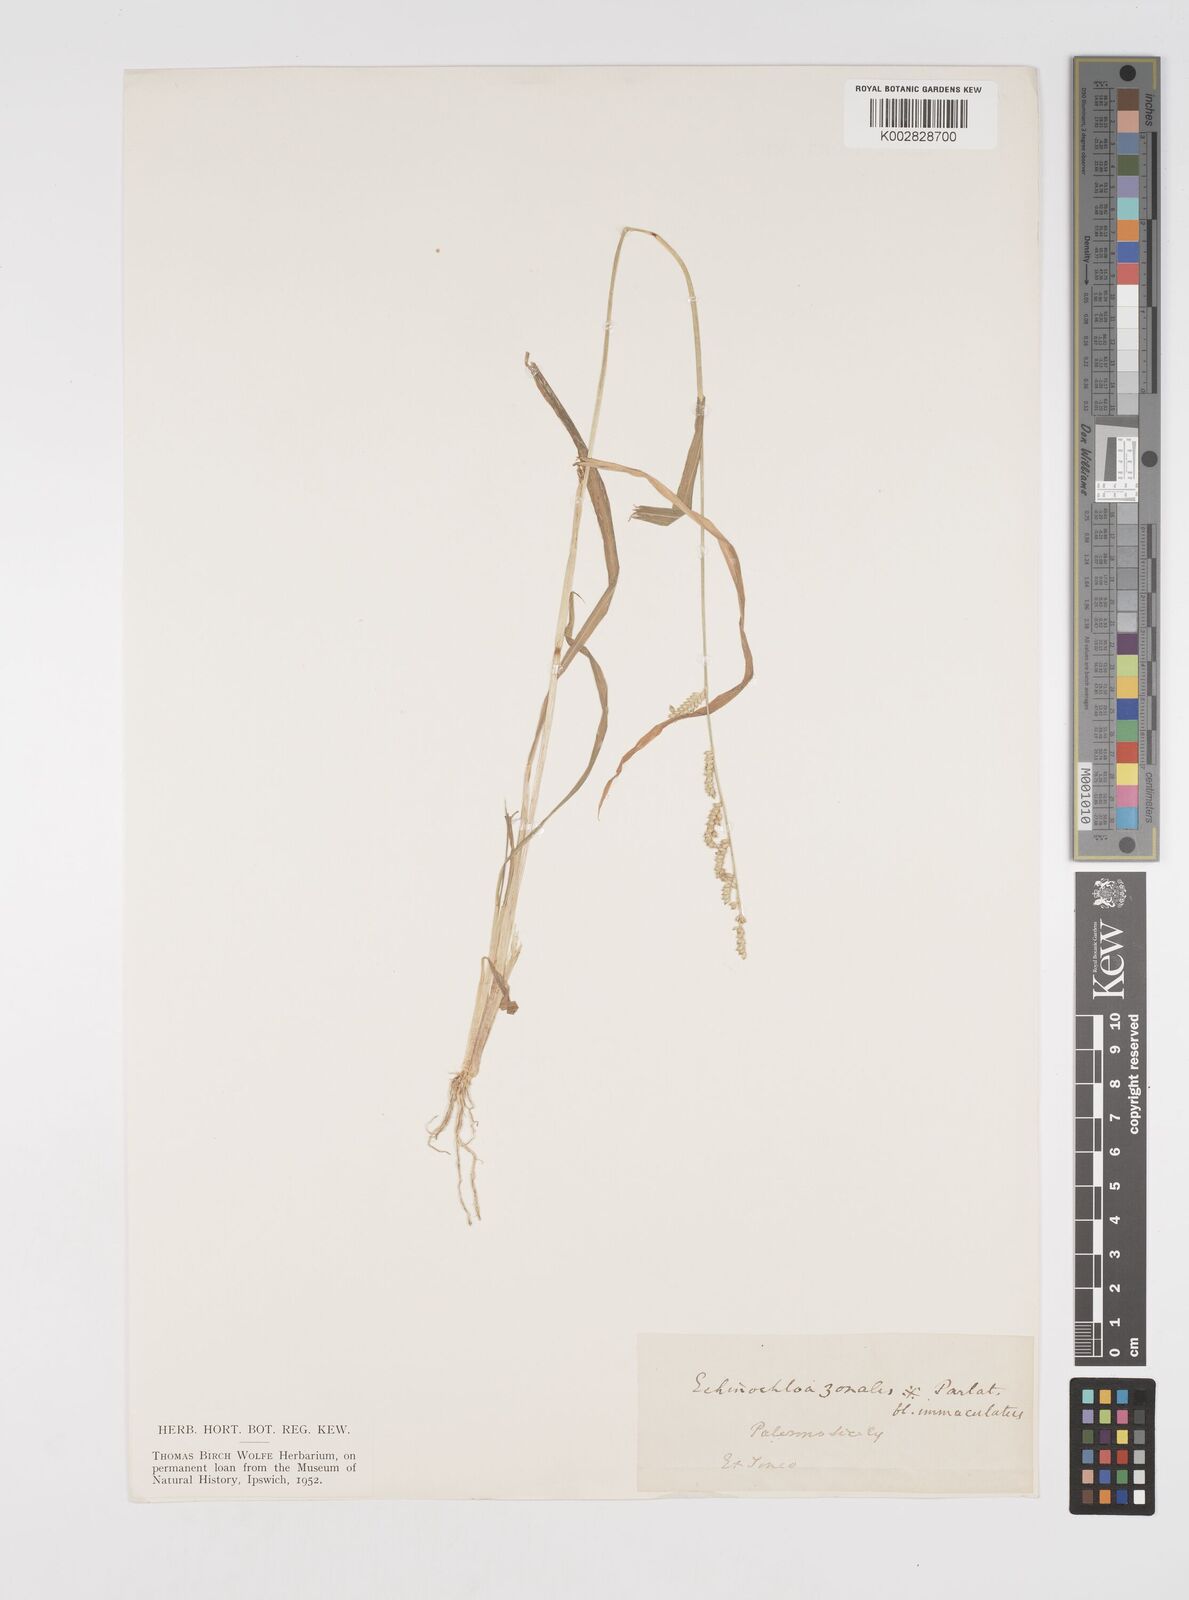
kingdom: Plantae
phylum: Tracheophyta
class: Liliopsida
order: Poales
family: Poaceae
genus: Echinochloa
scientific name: Echinochloa colonum
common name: Jungle rice
